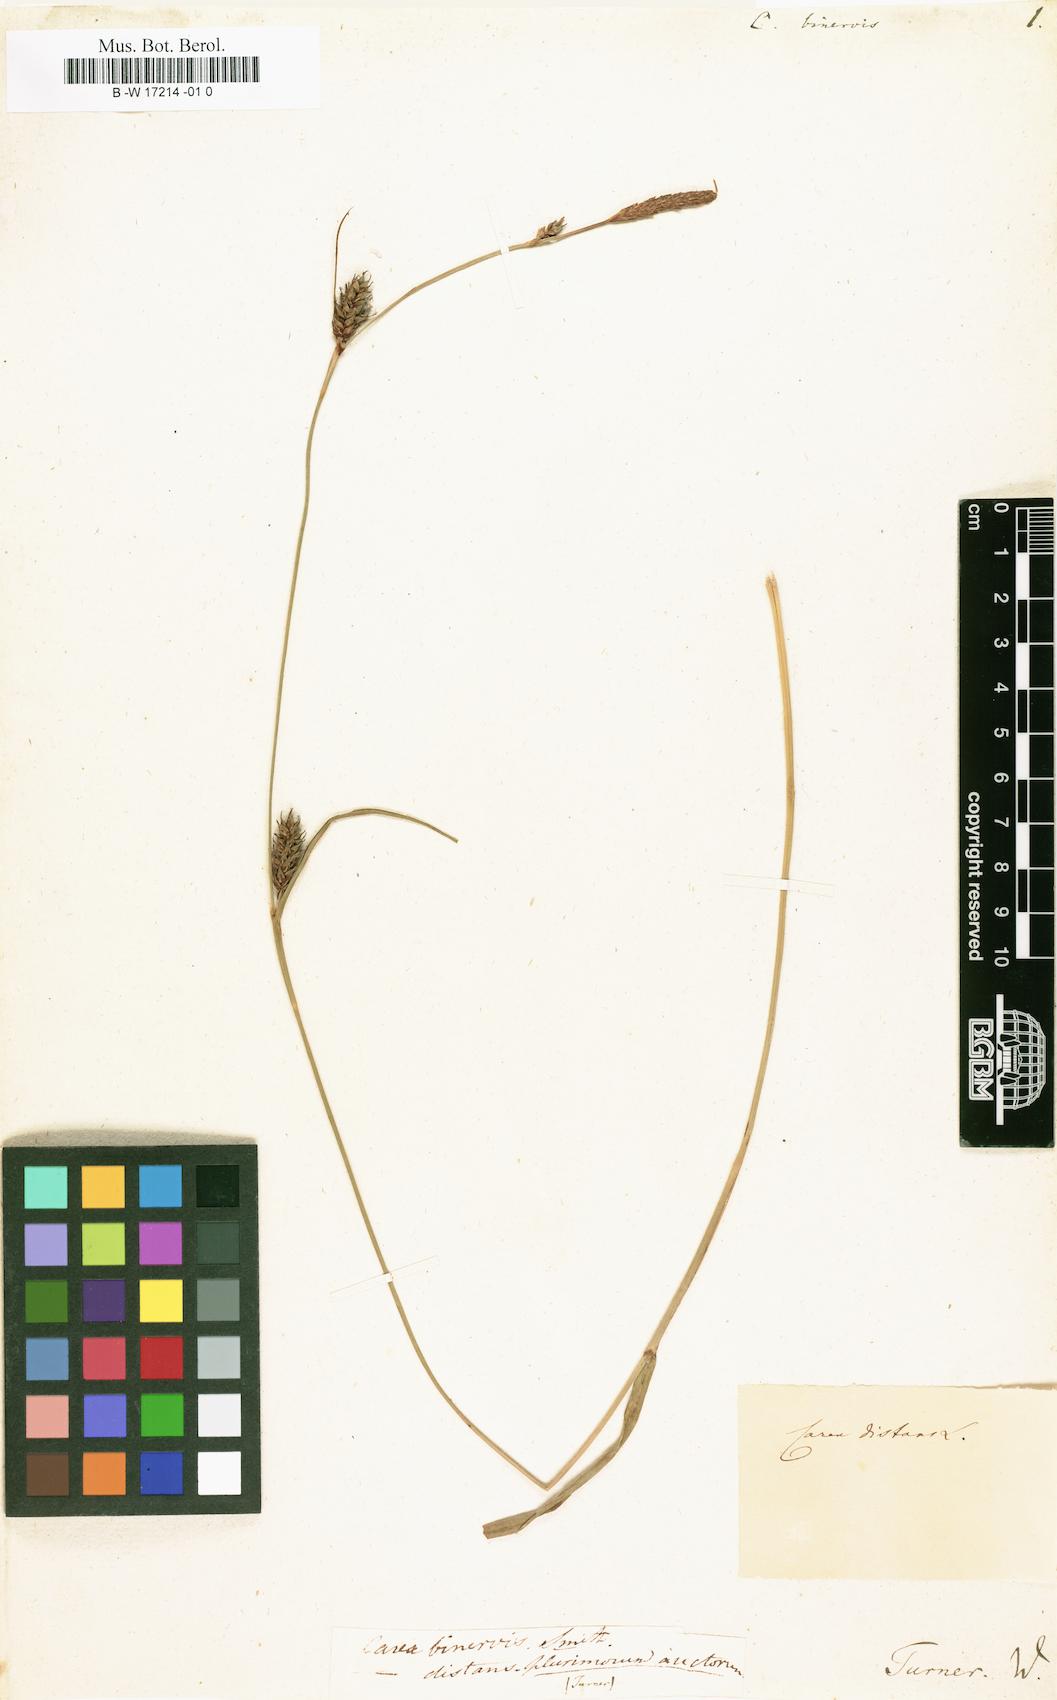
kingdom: Plantae
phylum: Tracheophyta
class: Liliopsida
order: Poales
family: Cyperaceae
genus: Carex
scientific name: Carex binervis
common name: Green-ribbed sedge
